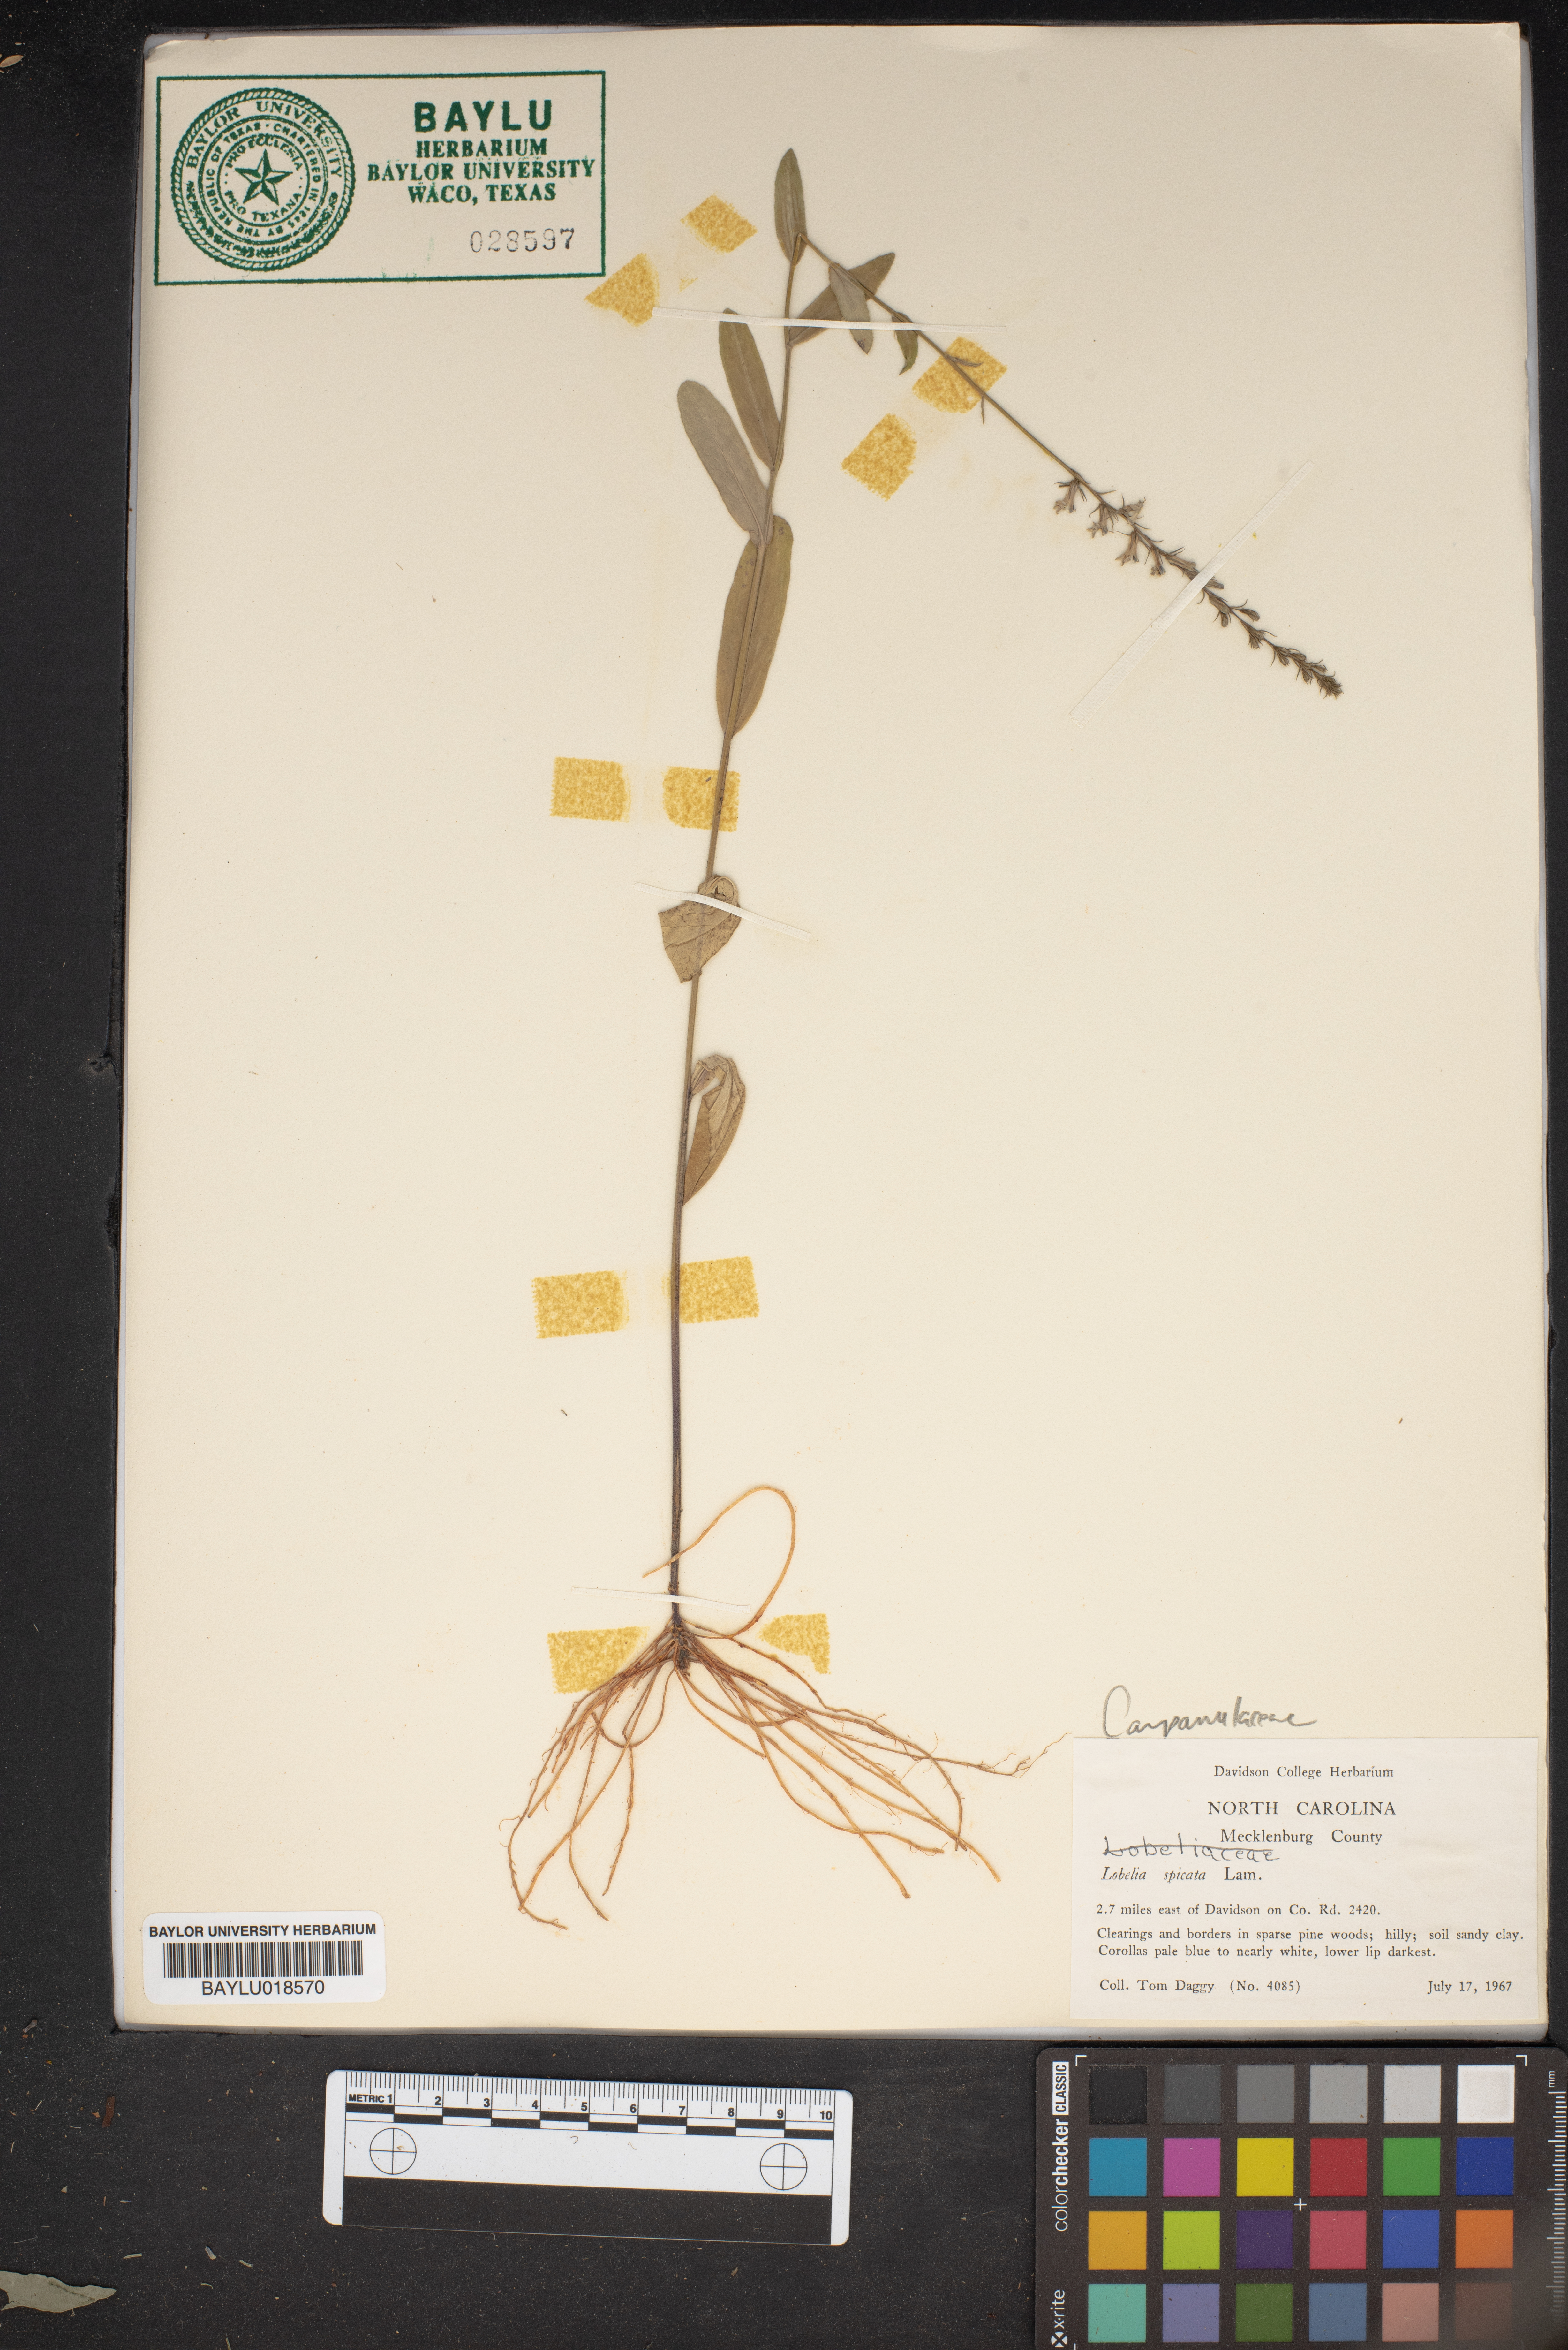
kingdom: Plantae
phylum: Tracheophyta
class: Magnoliopsida
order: Asterales
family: Campanulaceae
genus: Lobelia
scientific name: Lobelia spicata
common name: Pale-spike lobelia
